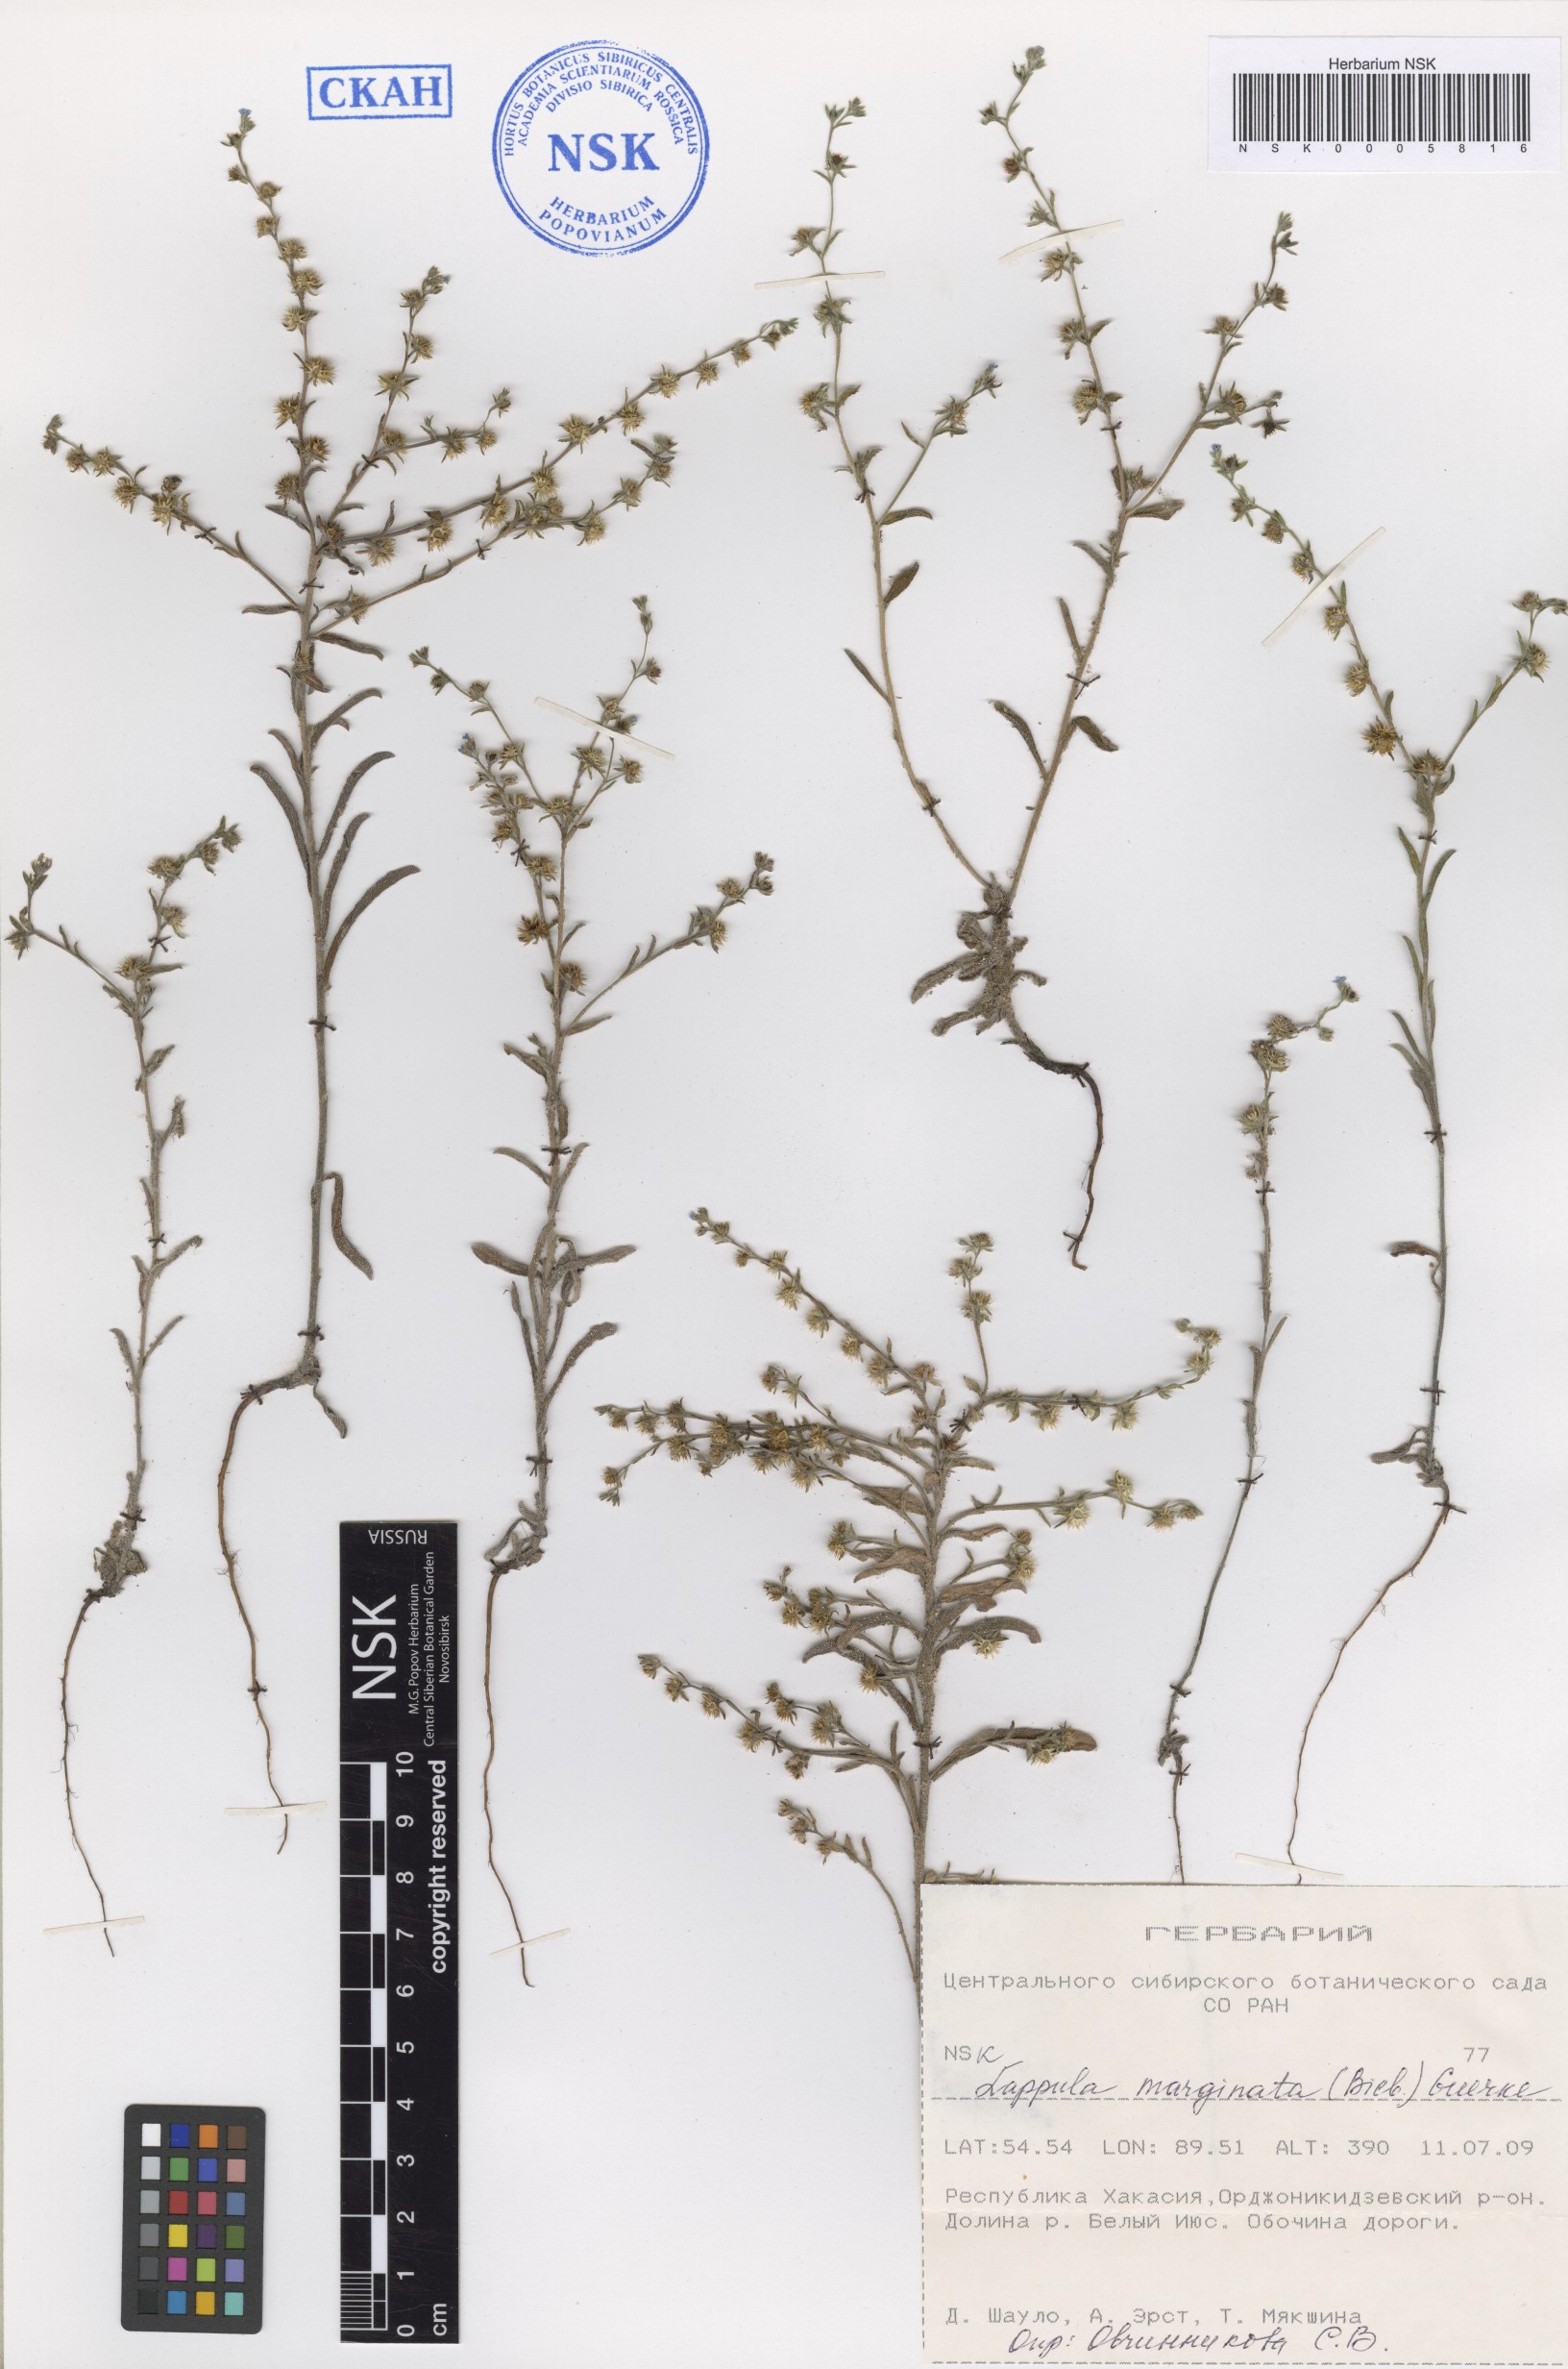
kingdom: Plantae
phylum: Tracheophyta
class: Magnoliopsida
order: Boraginales
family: Boraginaceae
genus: Lappula
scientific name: Lappula marginata
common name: Margined stickseed
